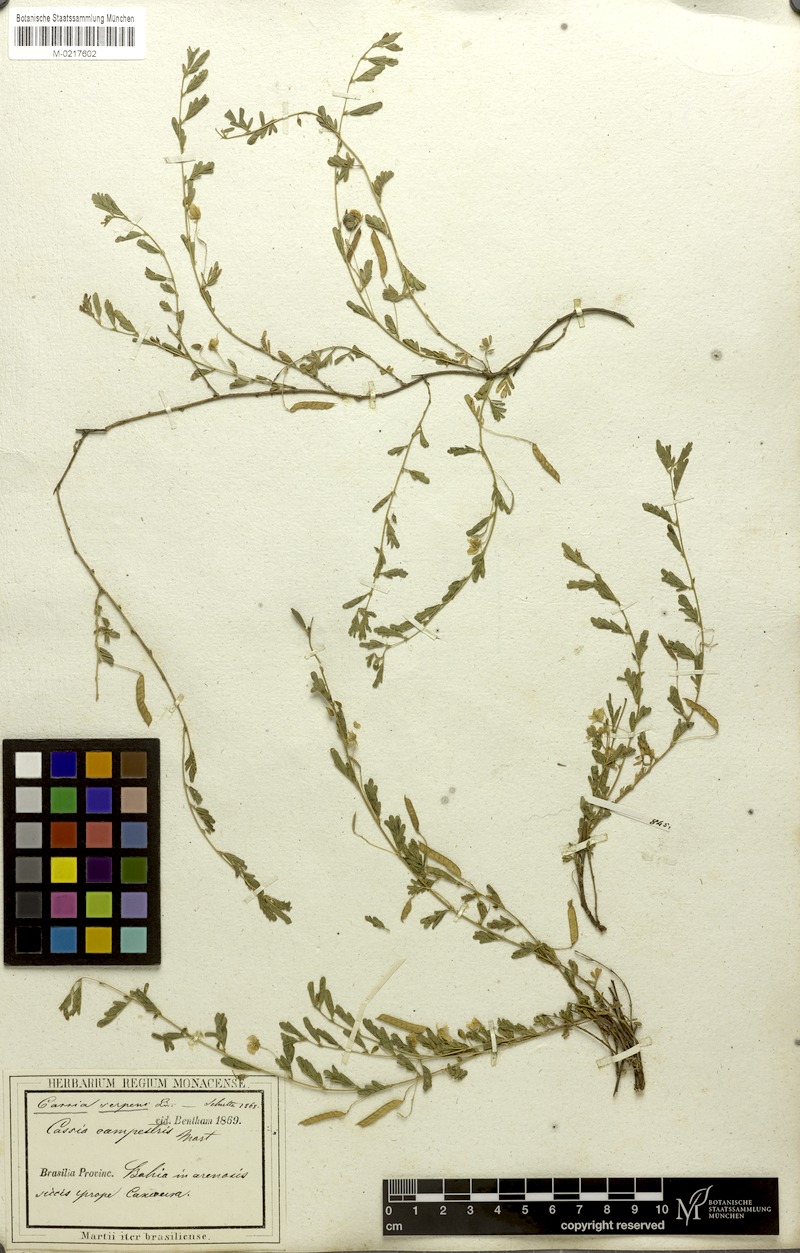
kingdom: Plantae
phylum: Tracheophyta
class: Magnoliopsida
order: Fabales
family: Fabaceae
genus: Chamaecrista
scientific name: Chamaecrista serpens
